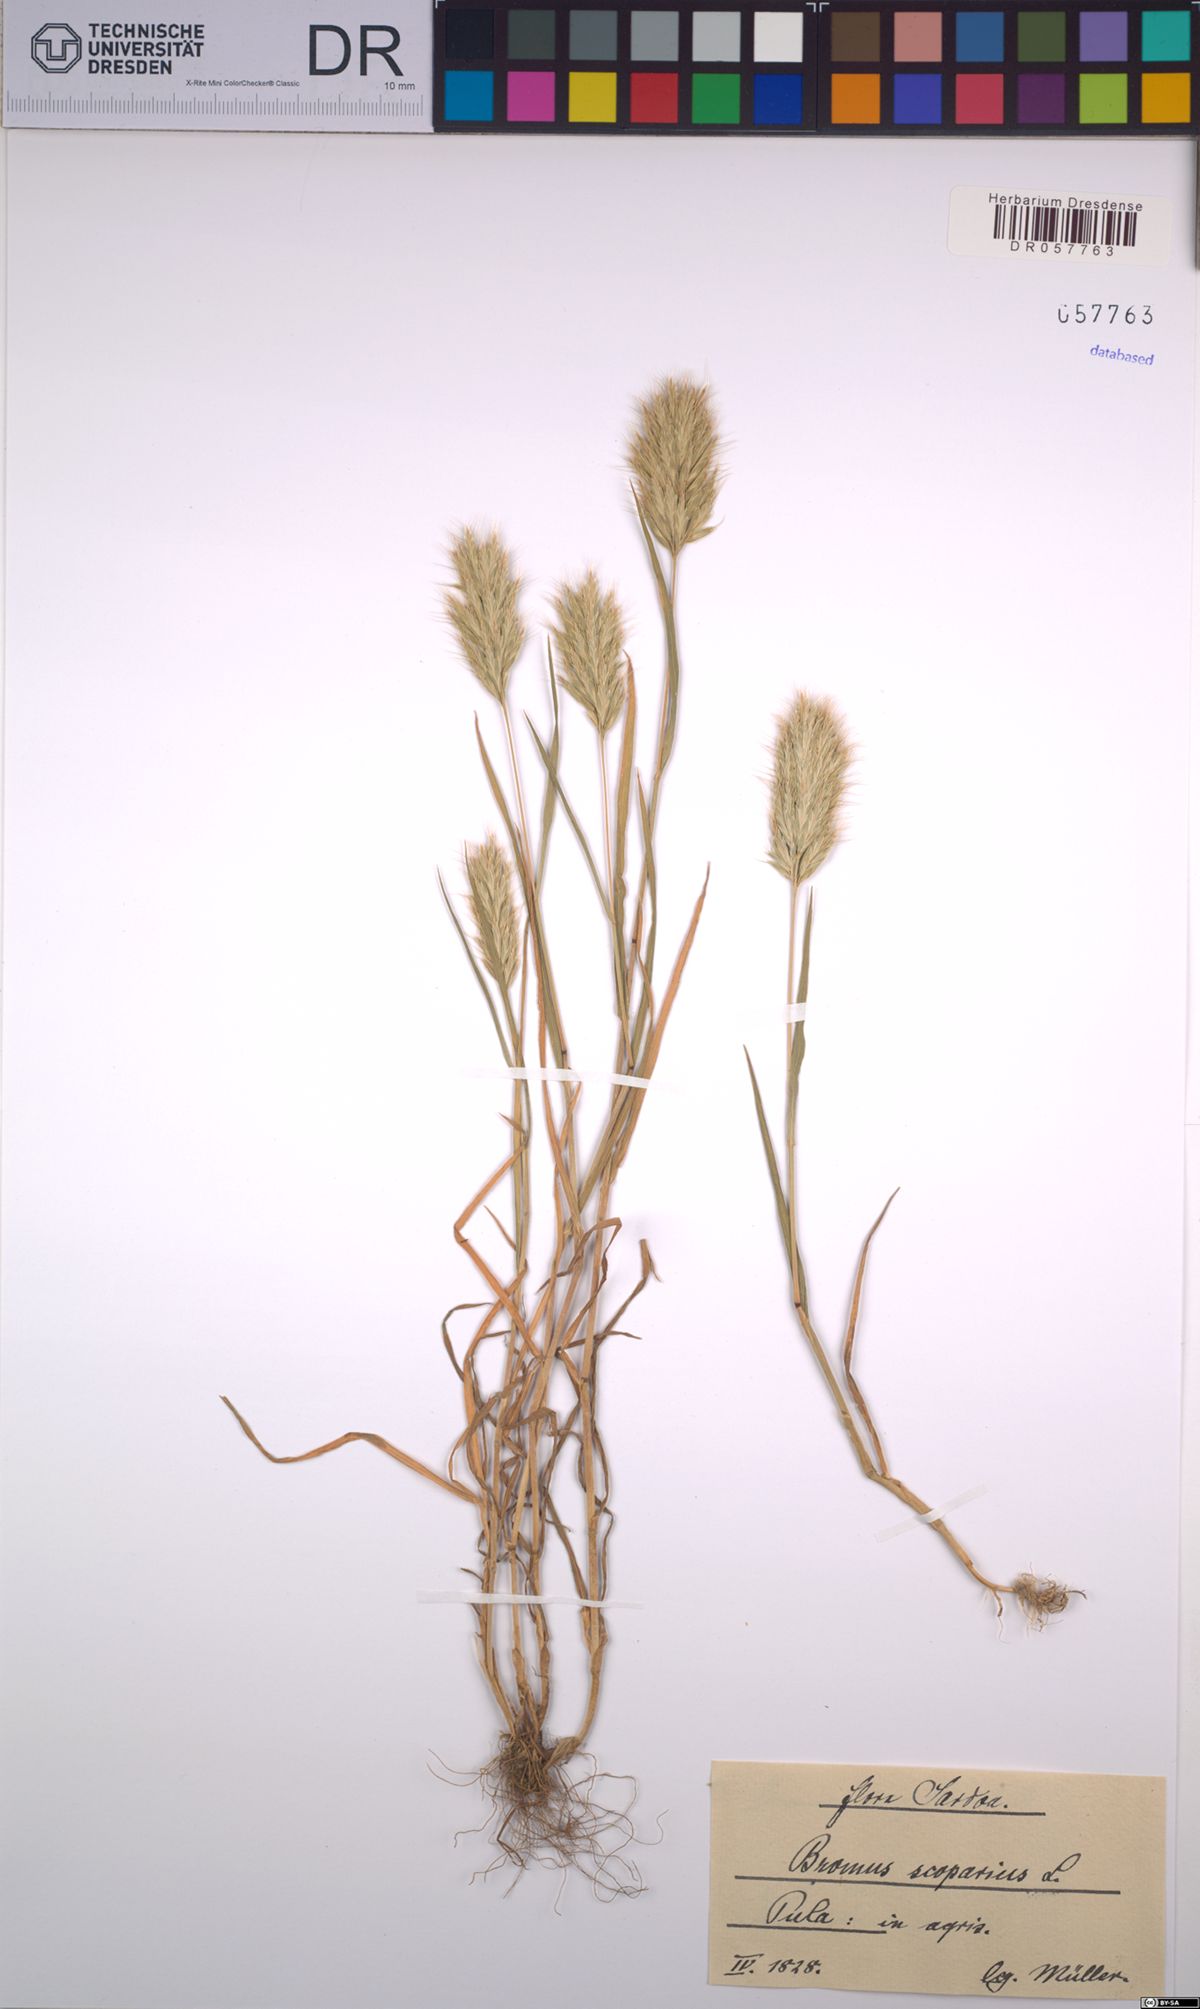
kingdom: Plantae
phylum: Tracheophyta
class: Liliopsida
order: Poales
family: Poaceae
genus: Bromus
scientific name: Bromus scoparius
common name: Broom brome
